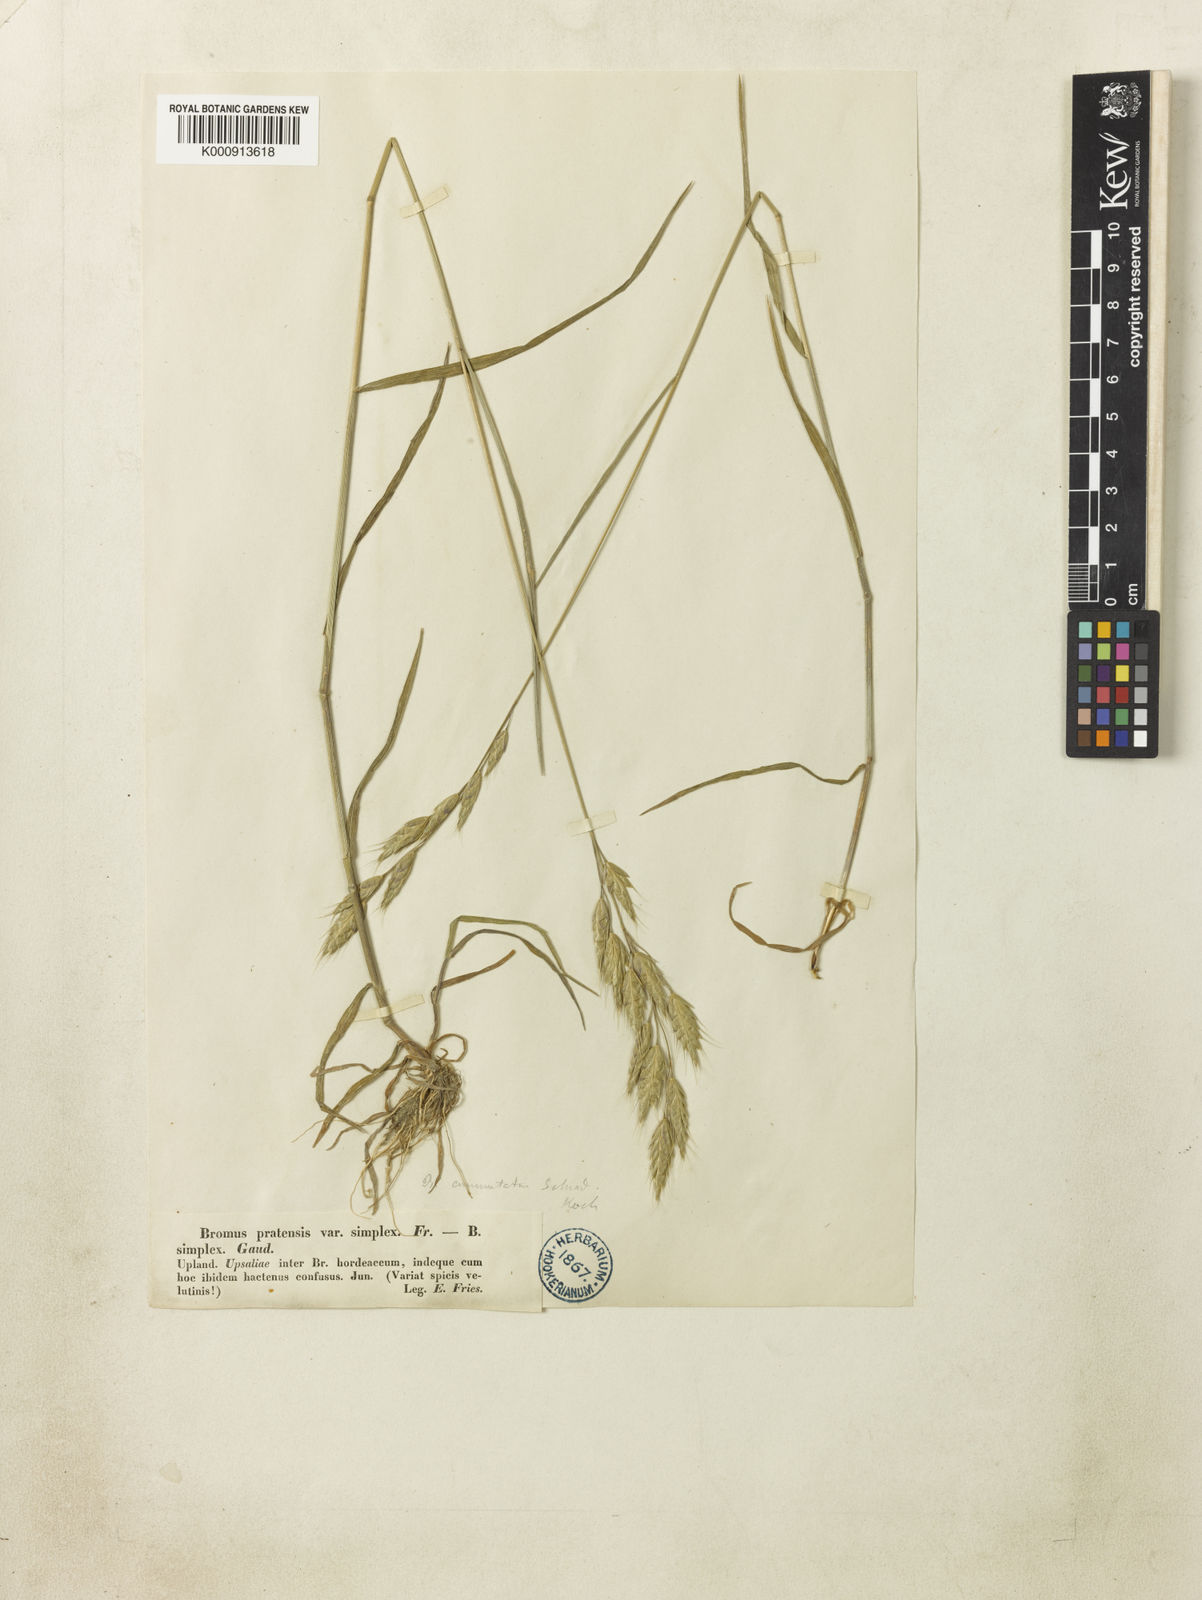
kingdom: Plantae
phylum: Tracheophyta
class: Liliopsida
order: Poales
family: Poaceae
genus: Bromus
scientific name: Bromus commutatus
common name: Meadow brome
